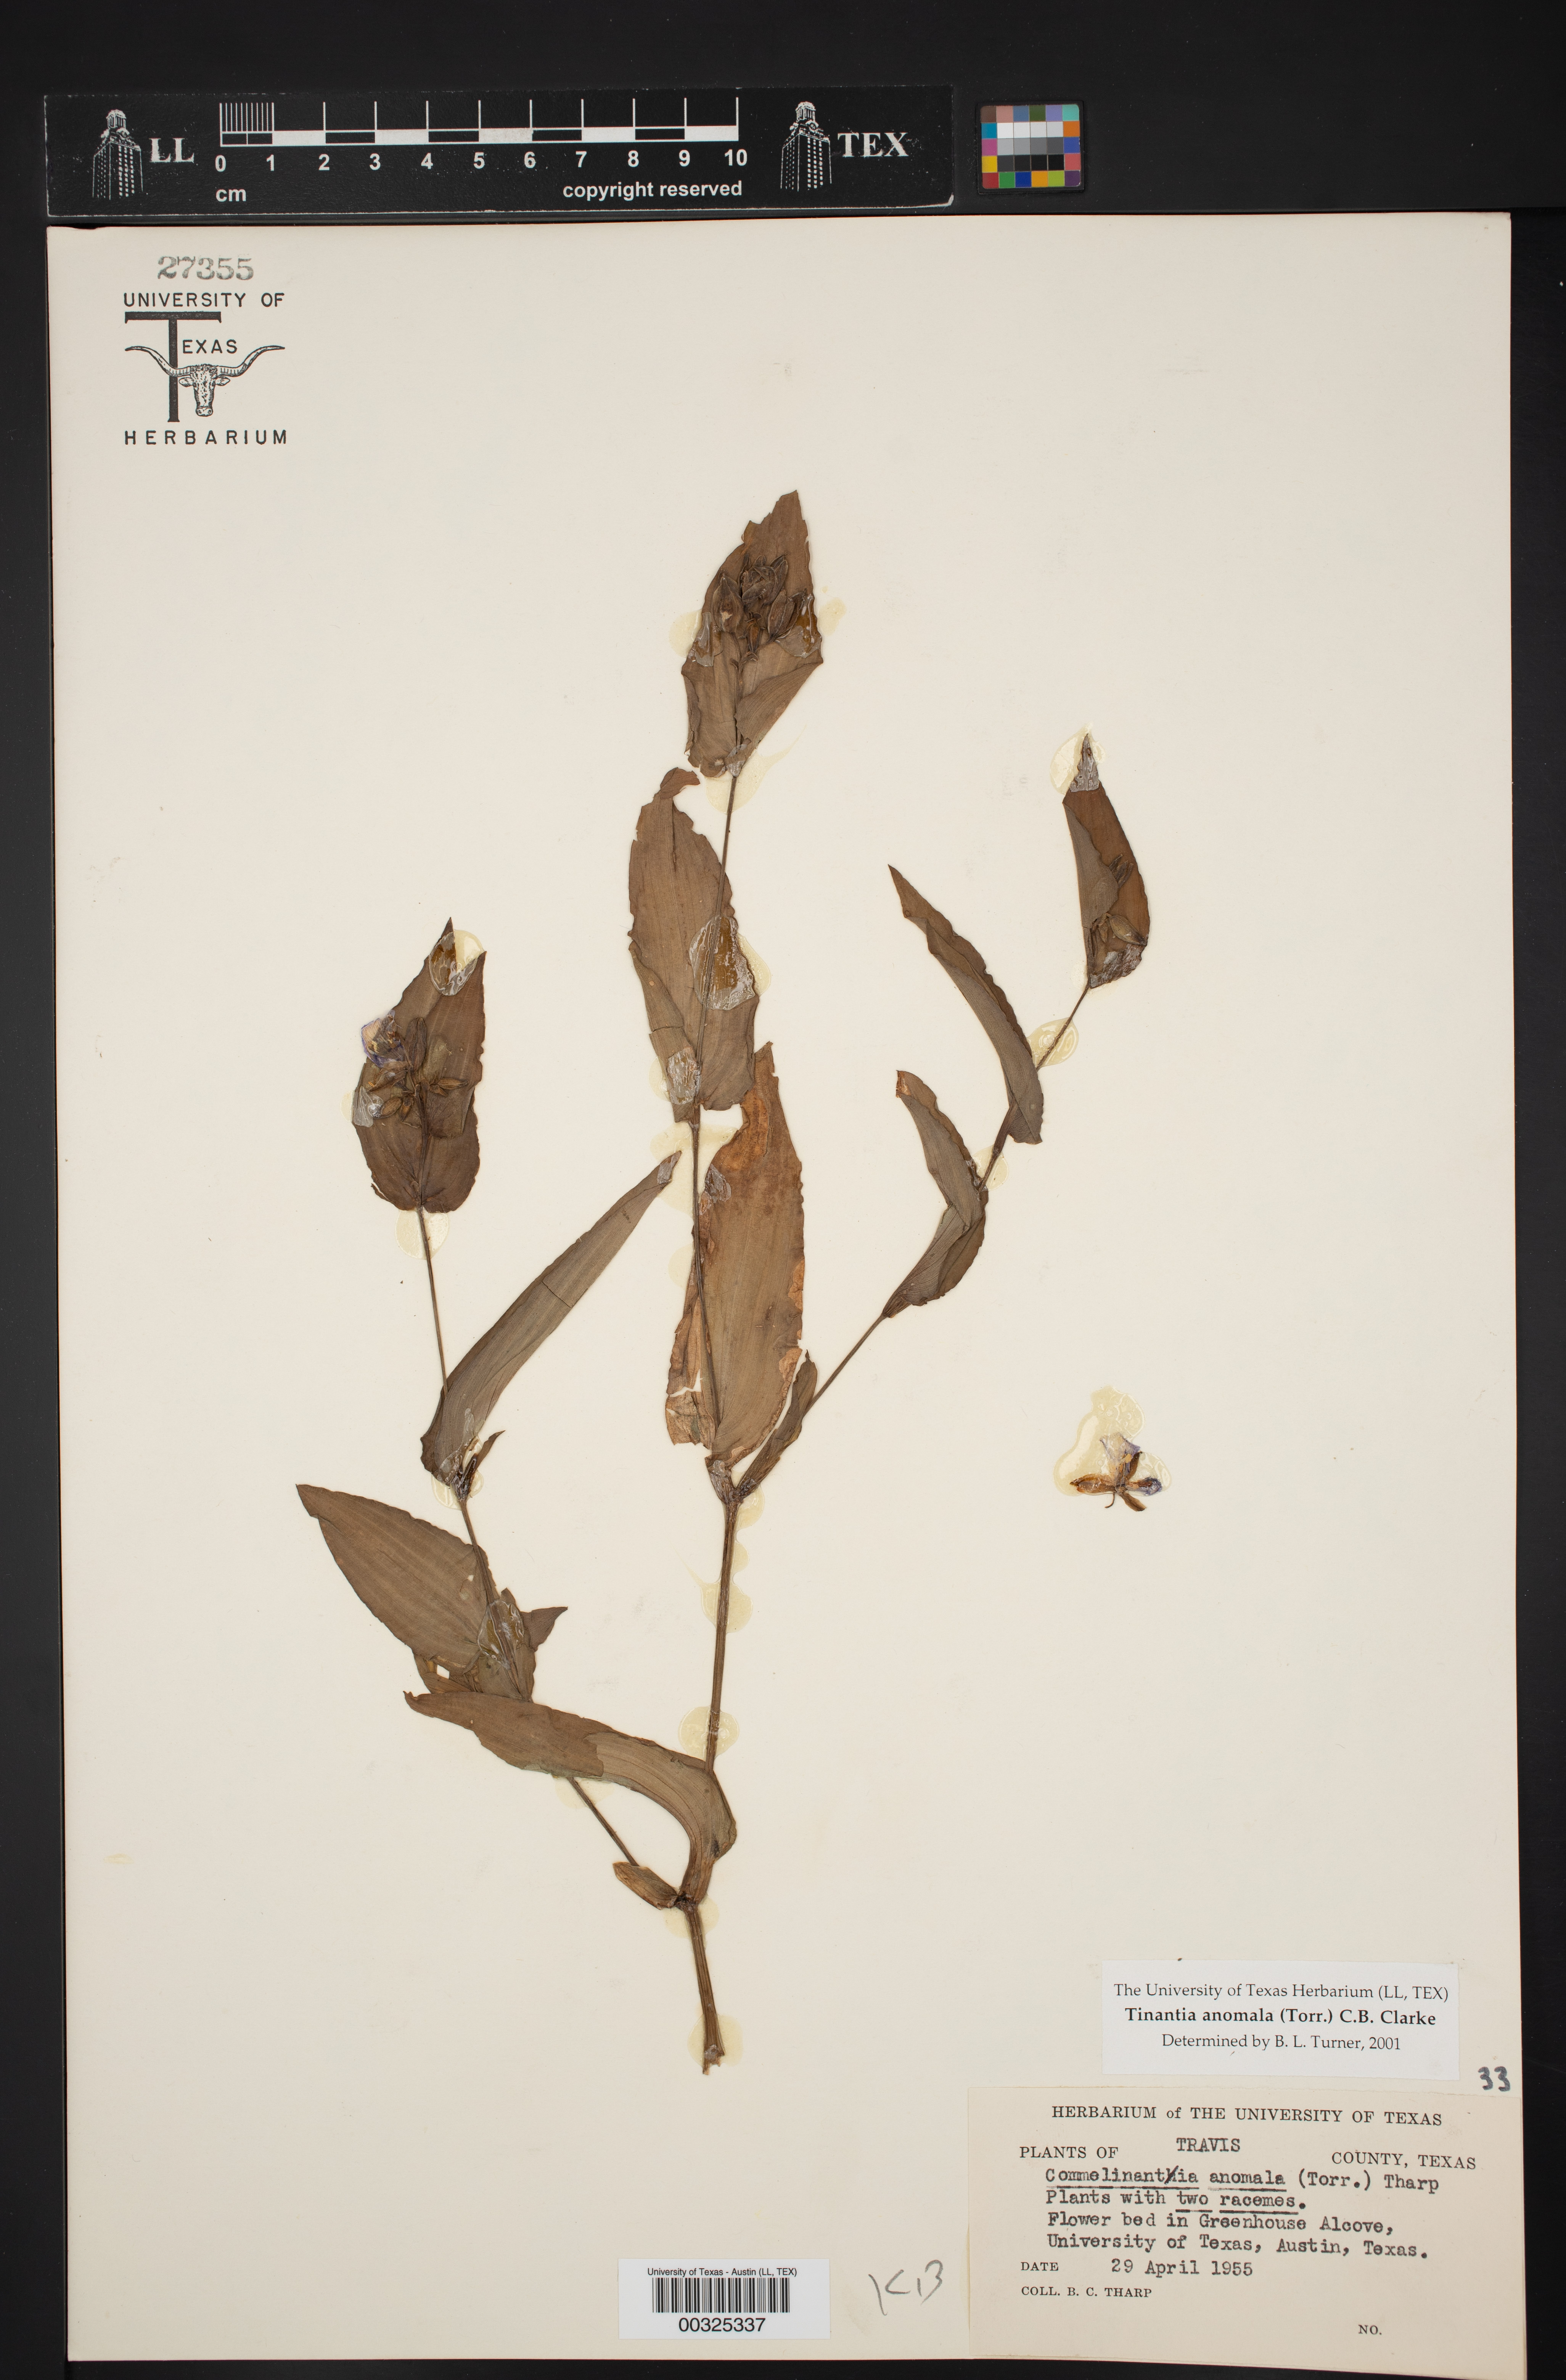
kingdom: Plantae
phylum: Tracheophyta
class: Liliopsida
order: Commelinales
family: Commelinaceae
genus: Tinantia
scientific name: Tinantia anomala
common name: False dayflower
